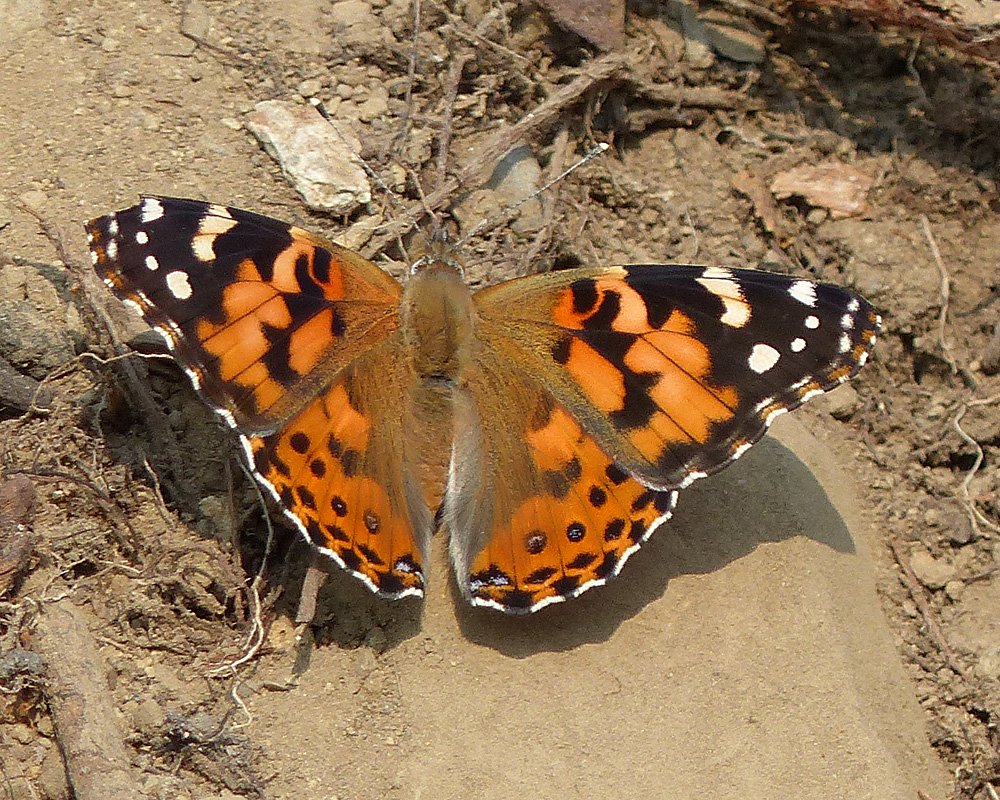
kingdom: Animalia
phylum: Arthropoda
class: Insecta
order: Lepidoptera
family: Nymphalidae
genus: Vanessa
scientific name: Vanessa cardui
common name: Painted Lady
